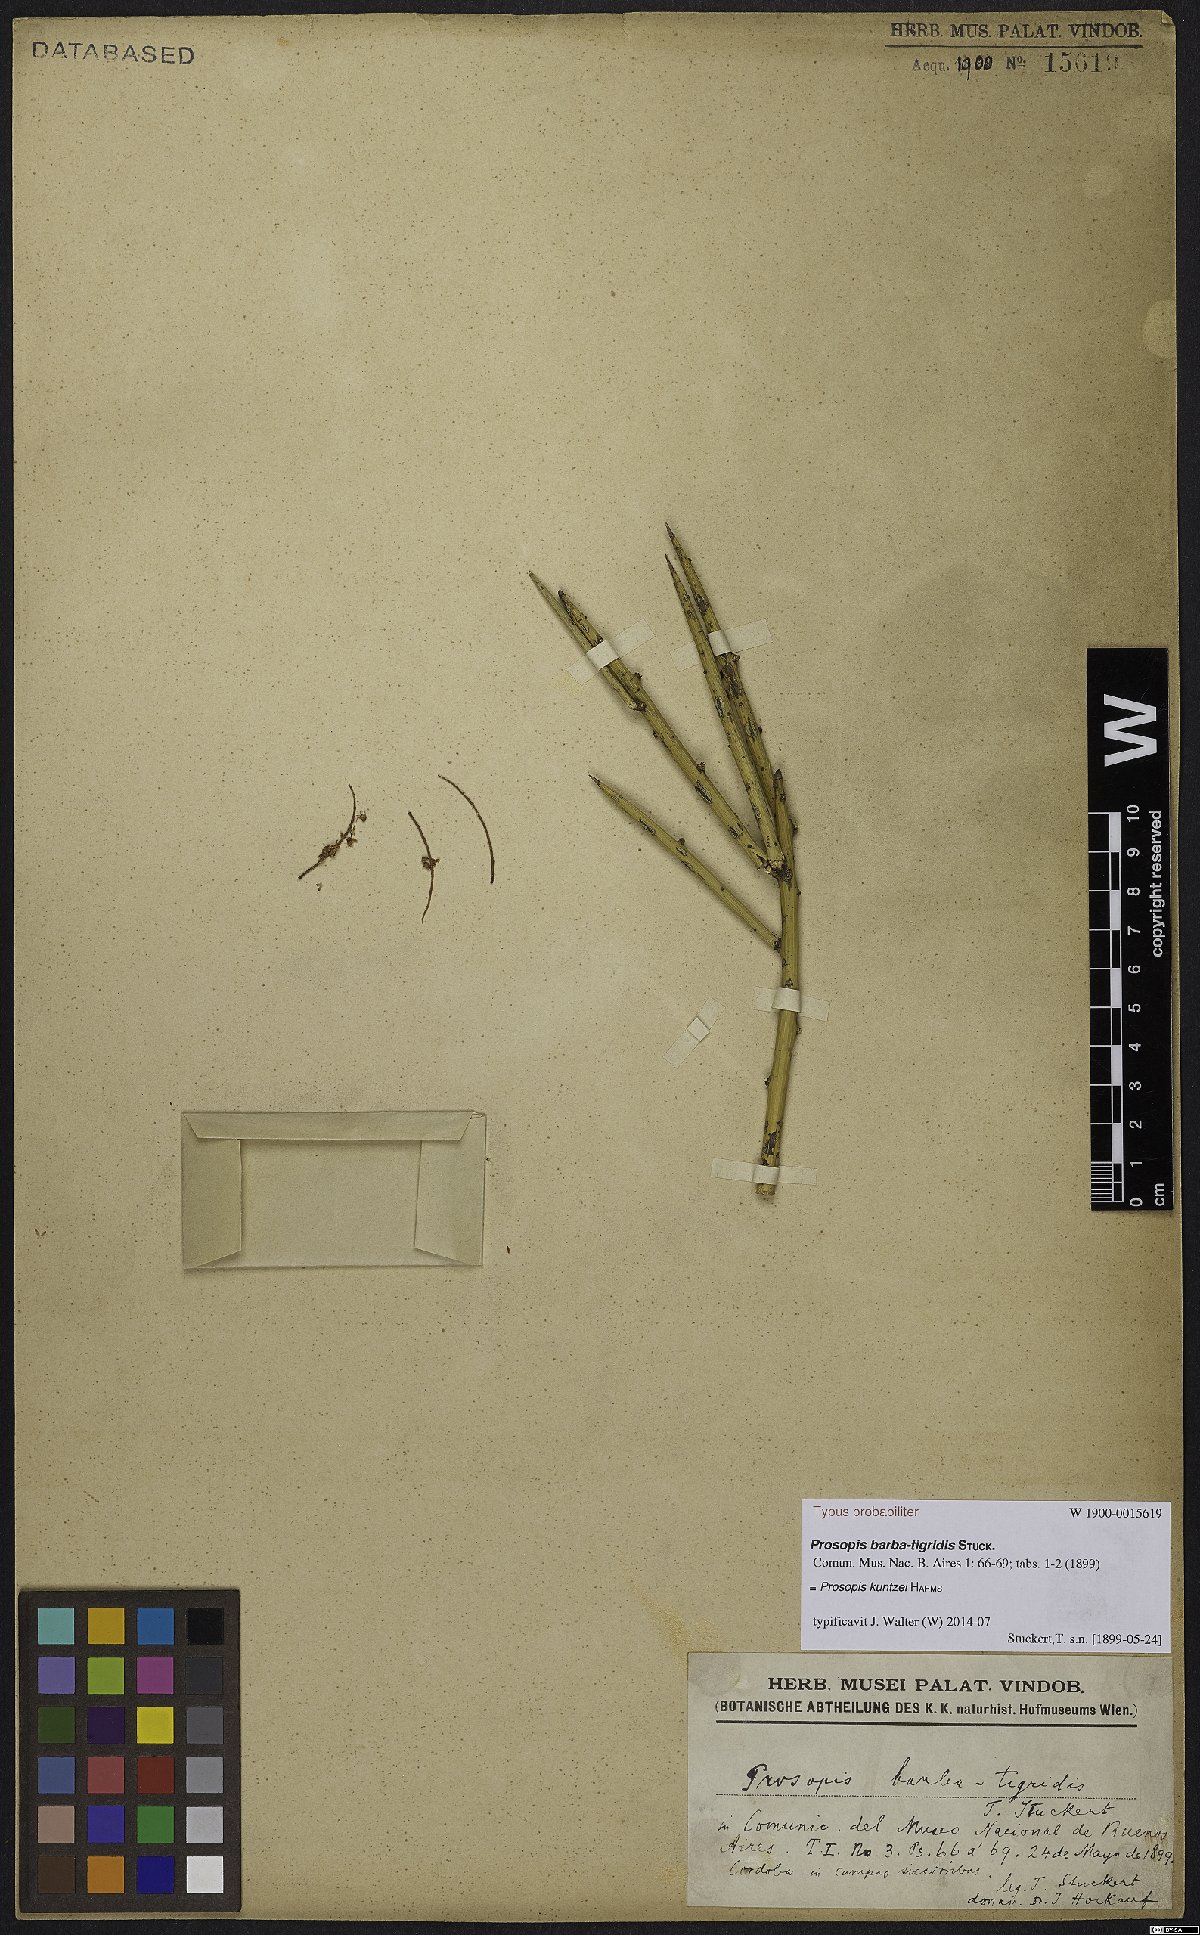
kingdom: Plantae
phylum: Tracheophyta
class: Magnoliopsida
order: Fabales
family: Fabaceae
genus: Prosopis
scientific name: Prosopis kuntzei
